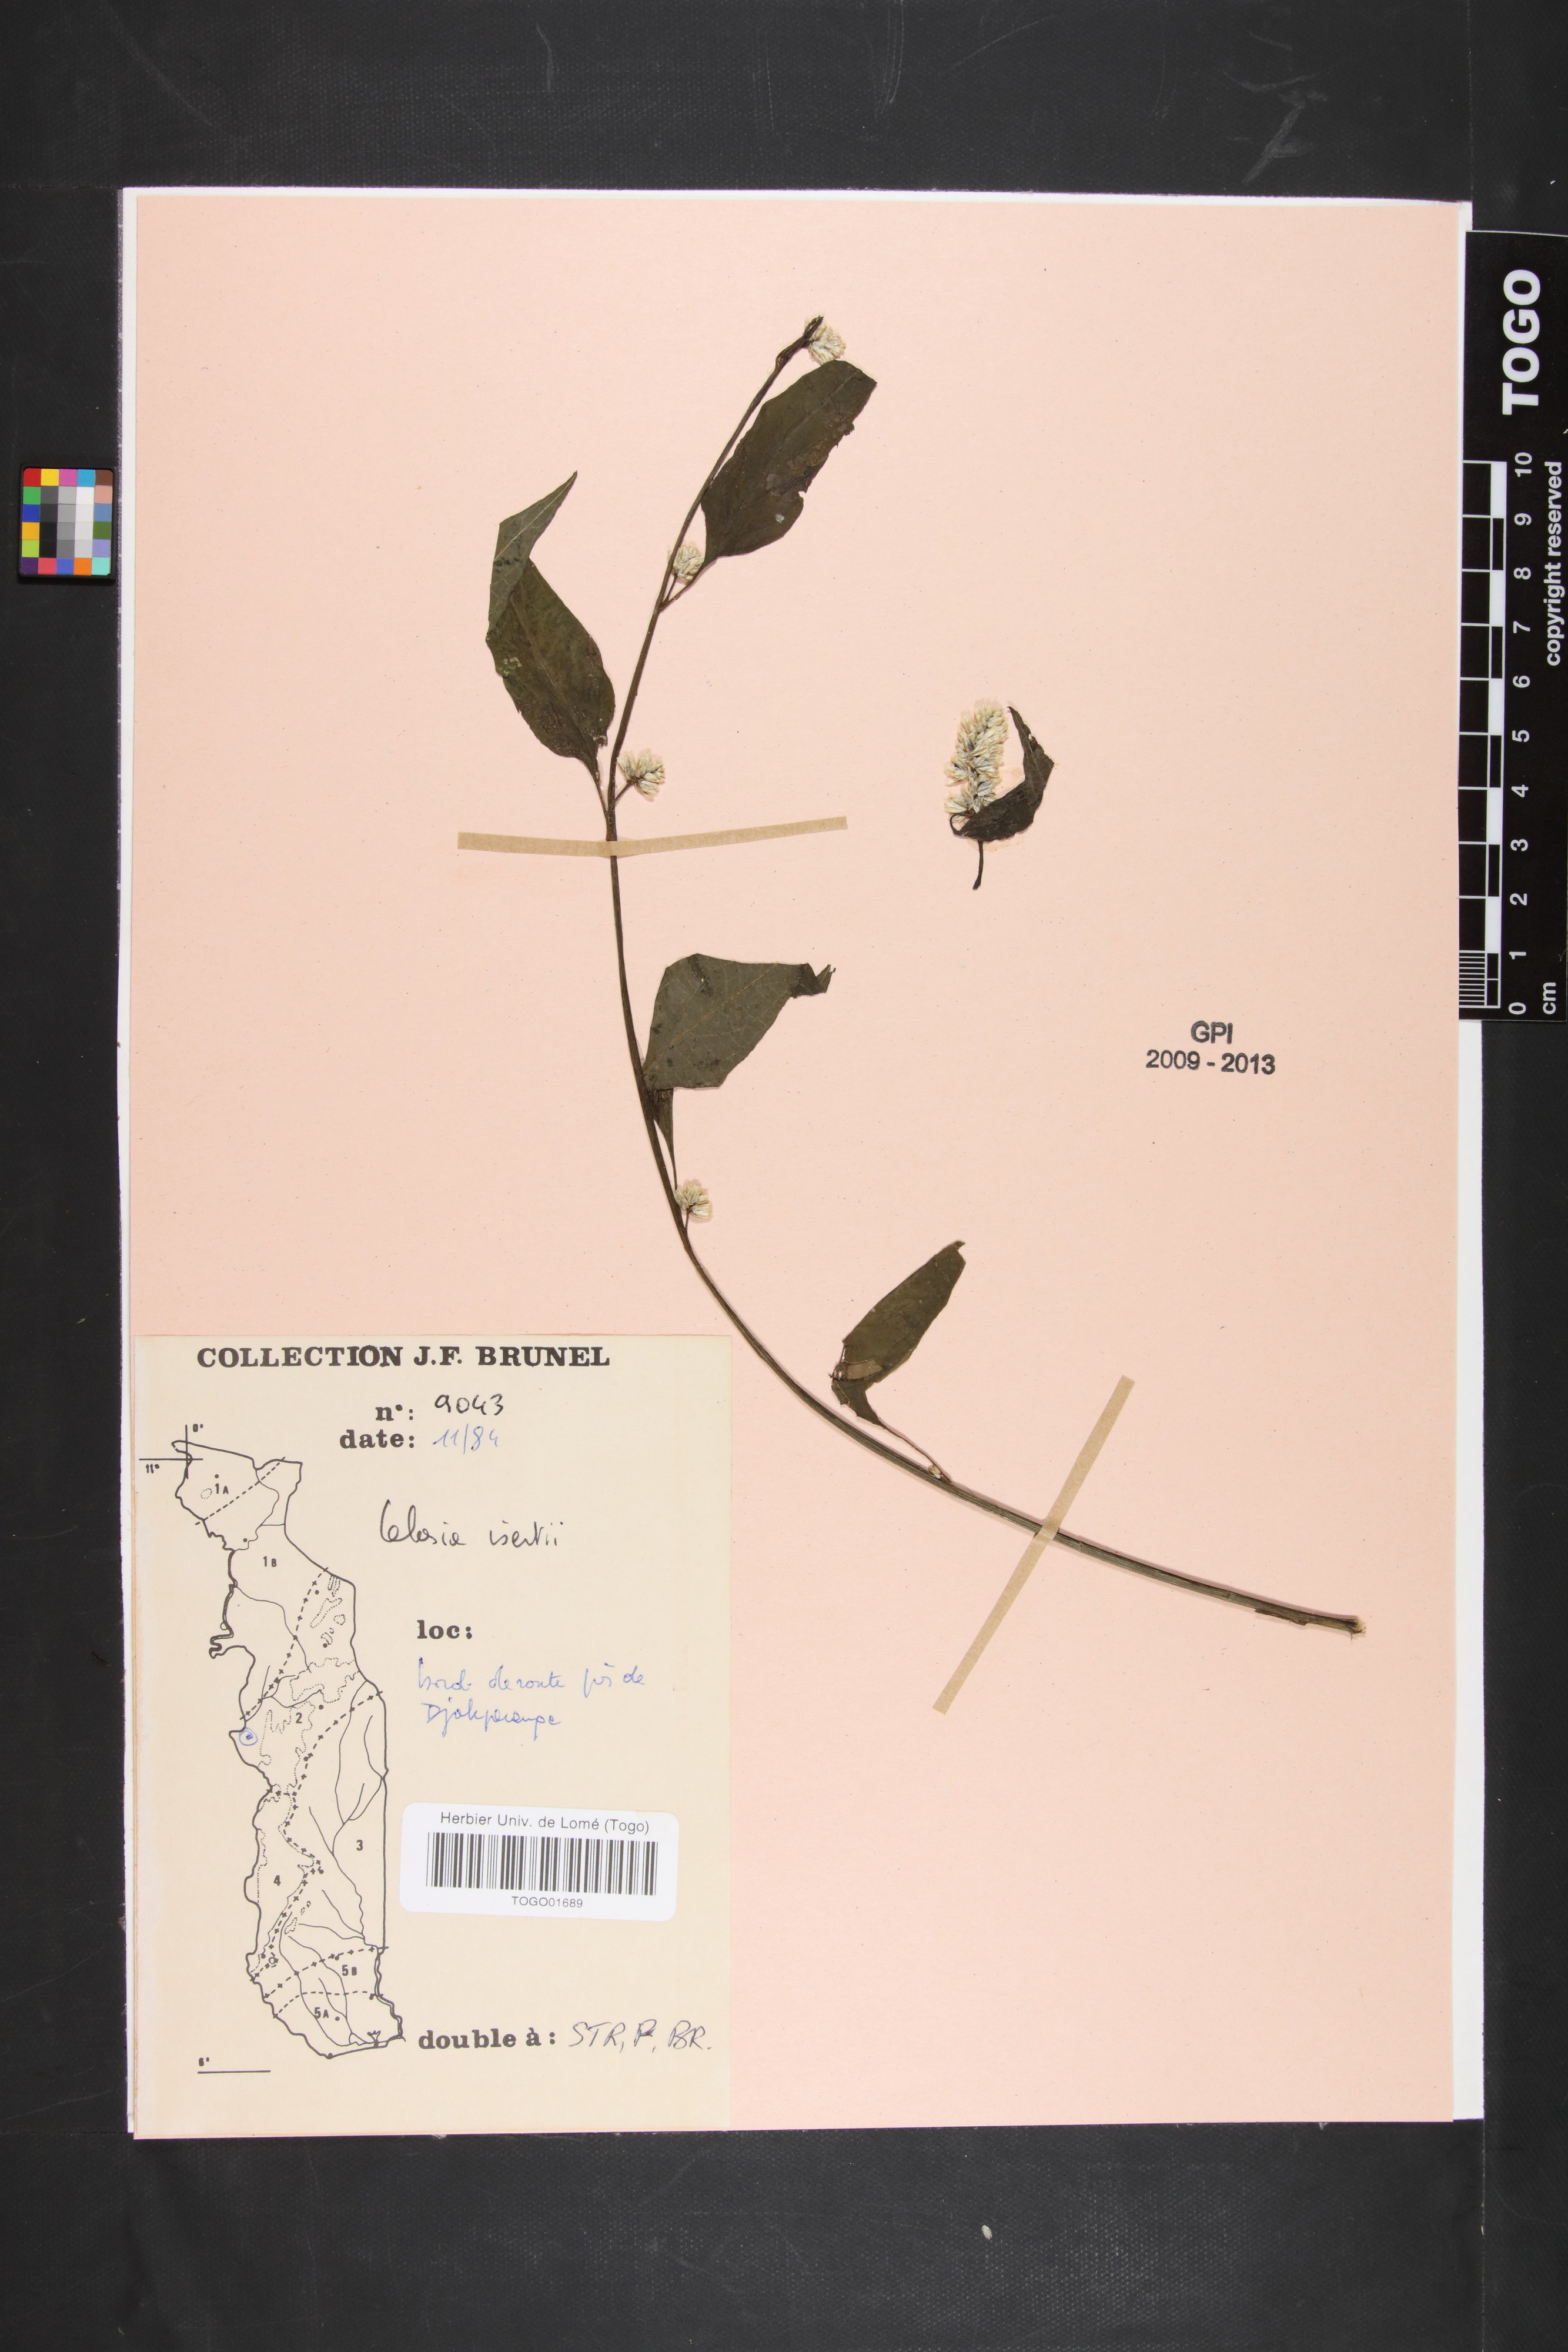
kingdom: Plantae
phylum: Tracheophyta
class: Magnoliopsida
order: Caryophyllales
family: Amaranthaceae
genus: Celosia
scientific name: Celosia isertii
